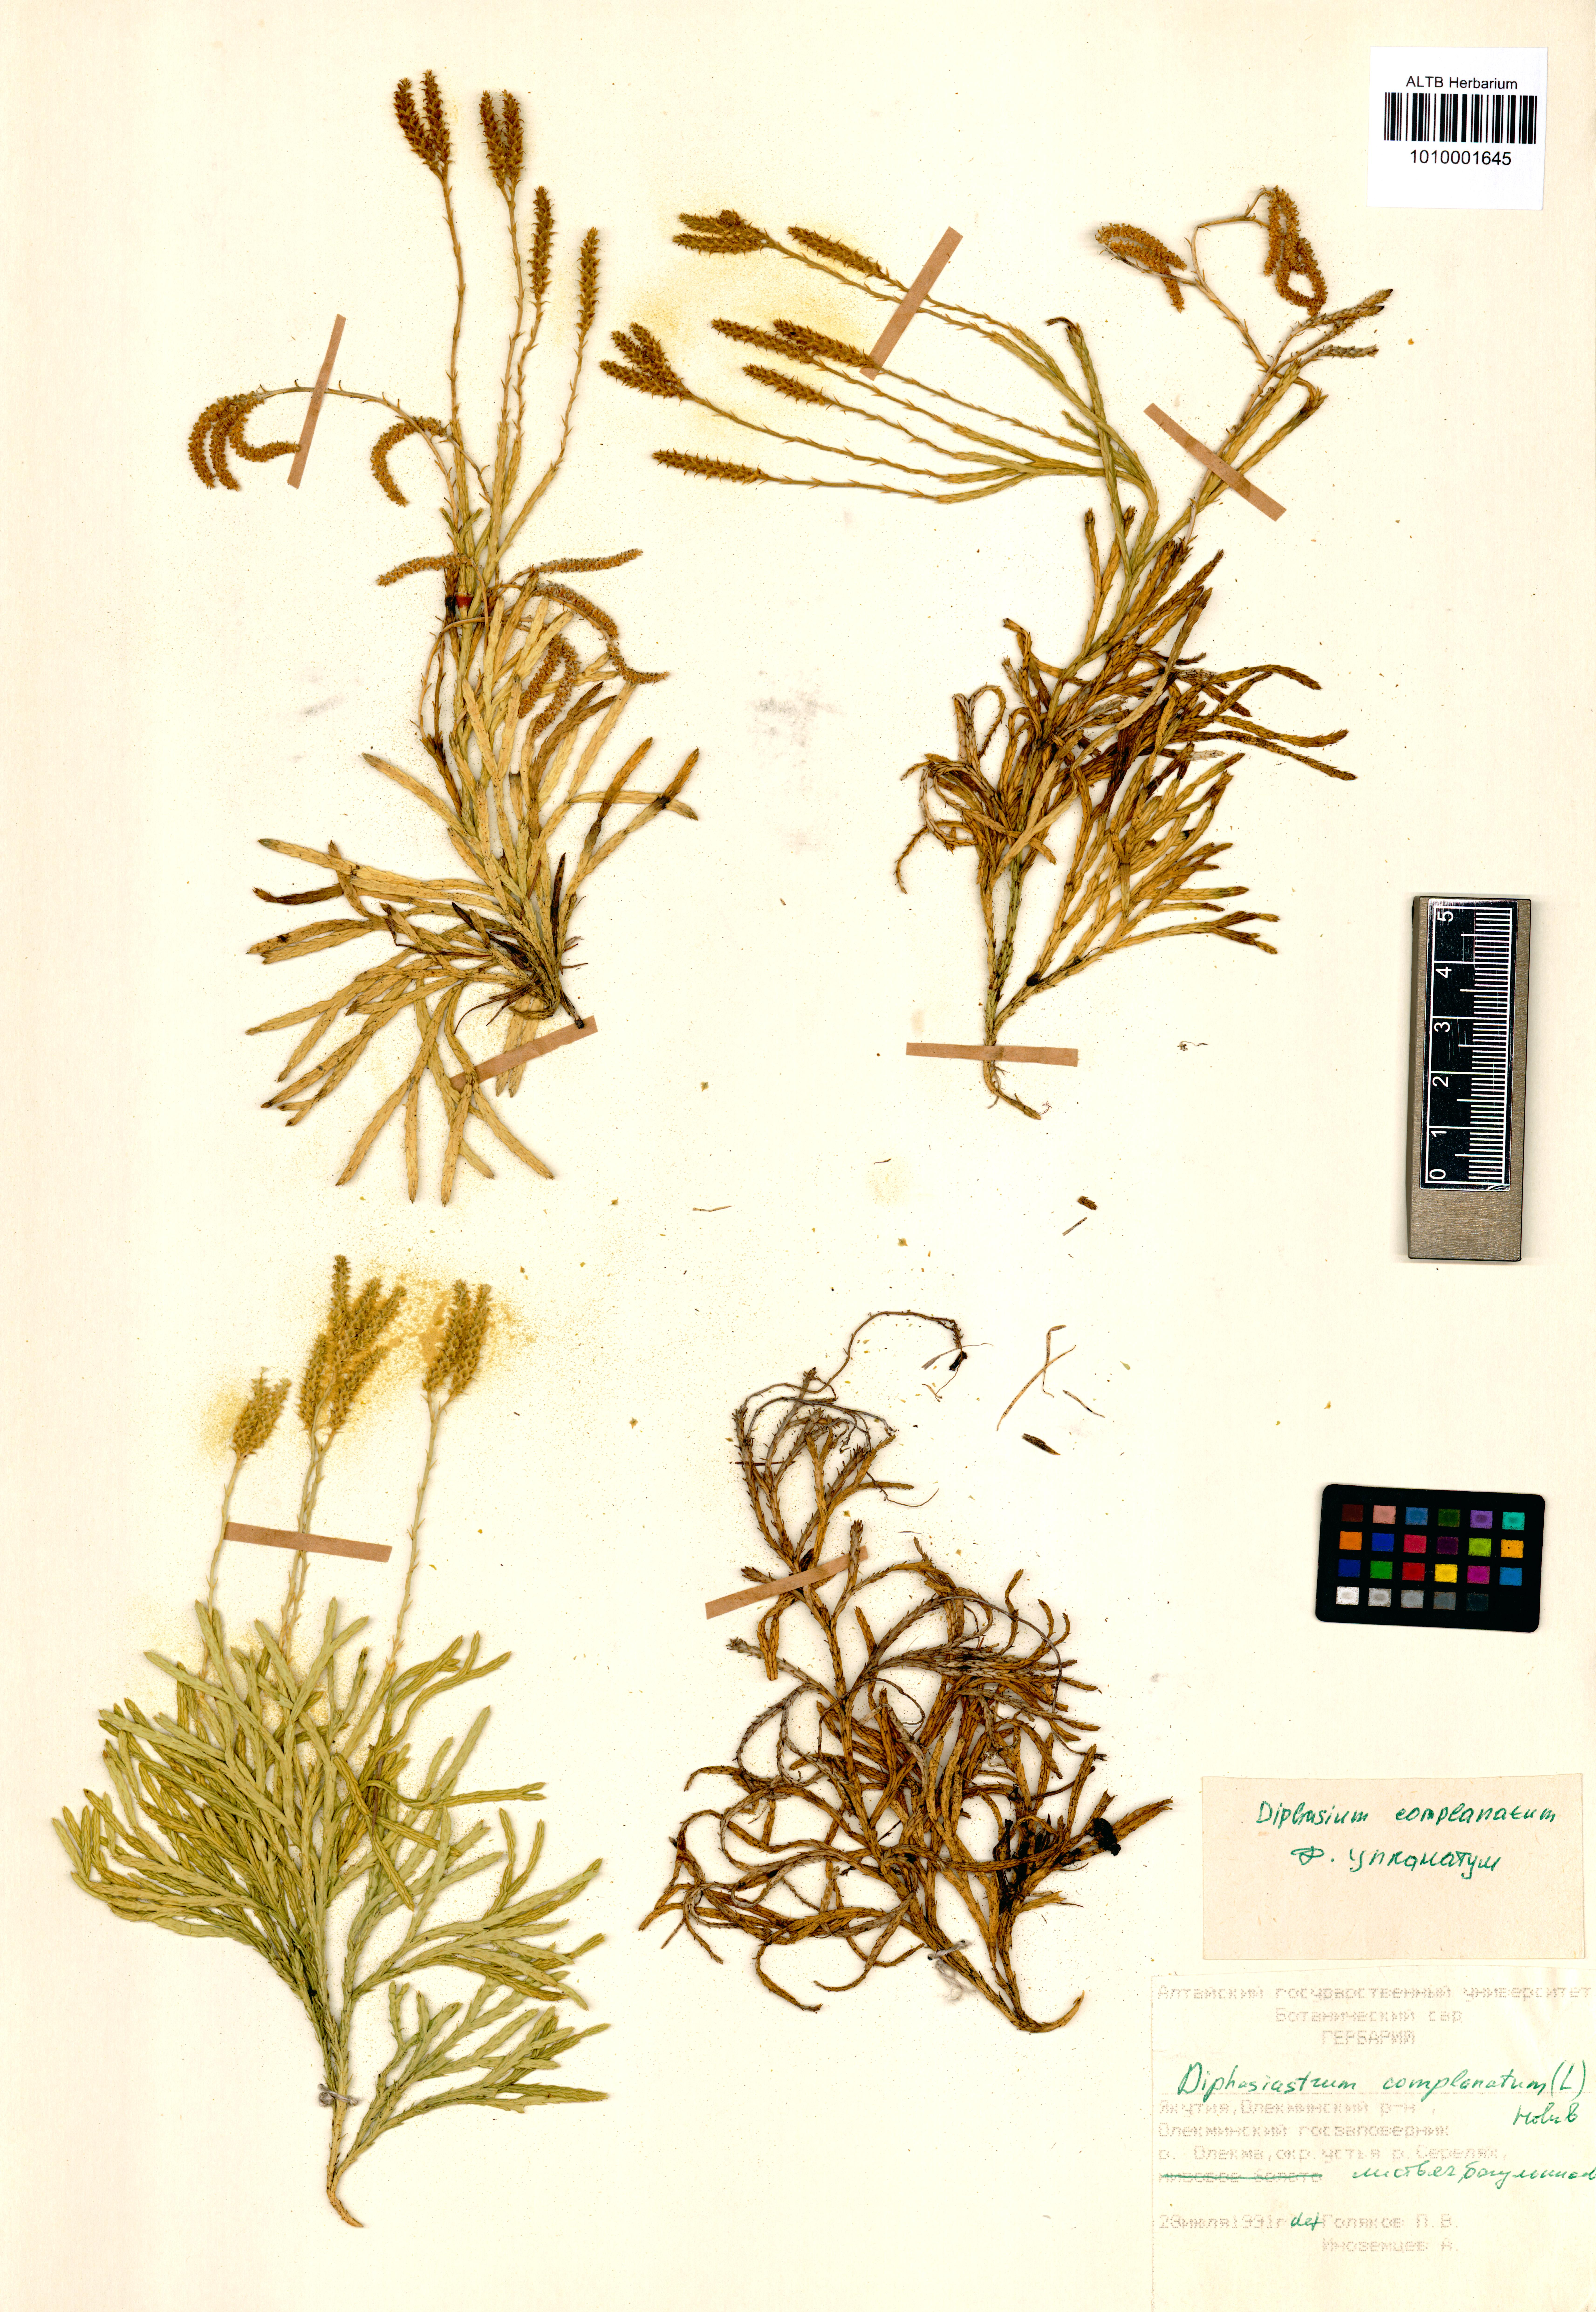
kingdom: Plantae
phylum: Tracheophyta
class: Lycopodiopsida
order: Lycopodiales
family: Lycopodiaceae
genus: Diphasiastrum
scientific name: Diphasiastrum complanatum
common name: Northern running-pine
